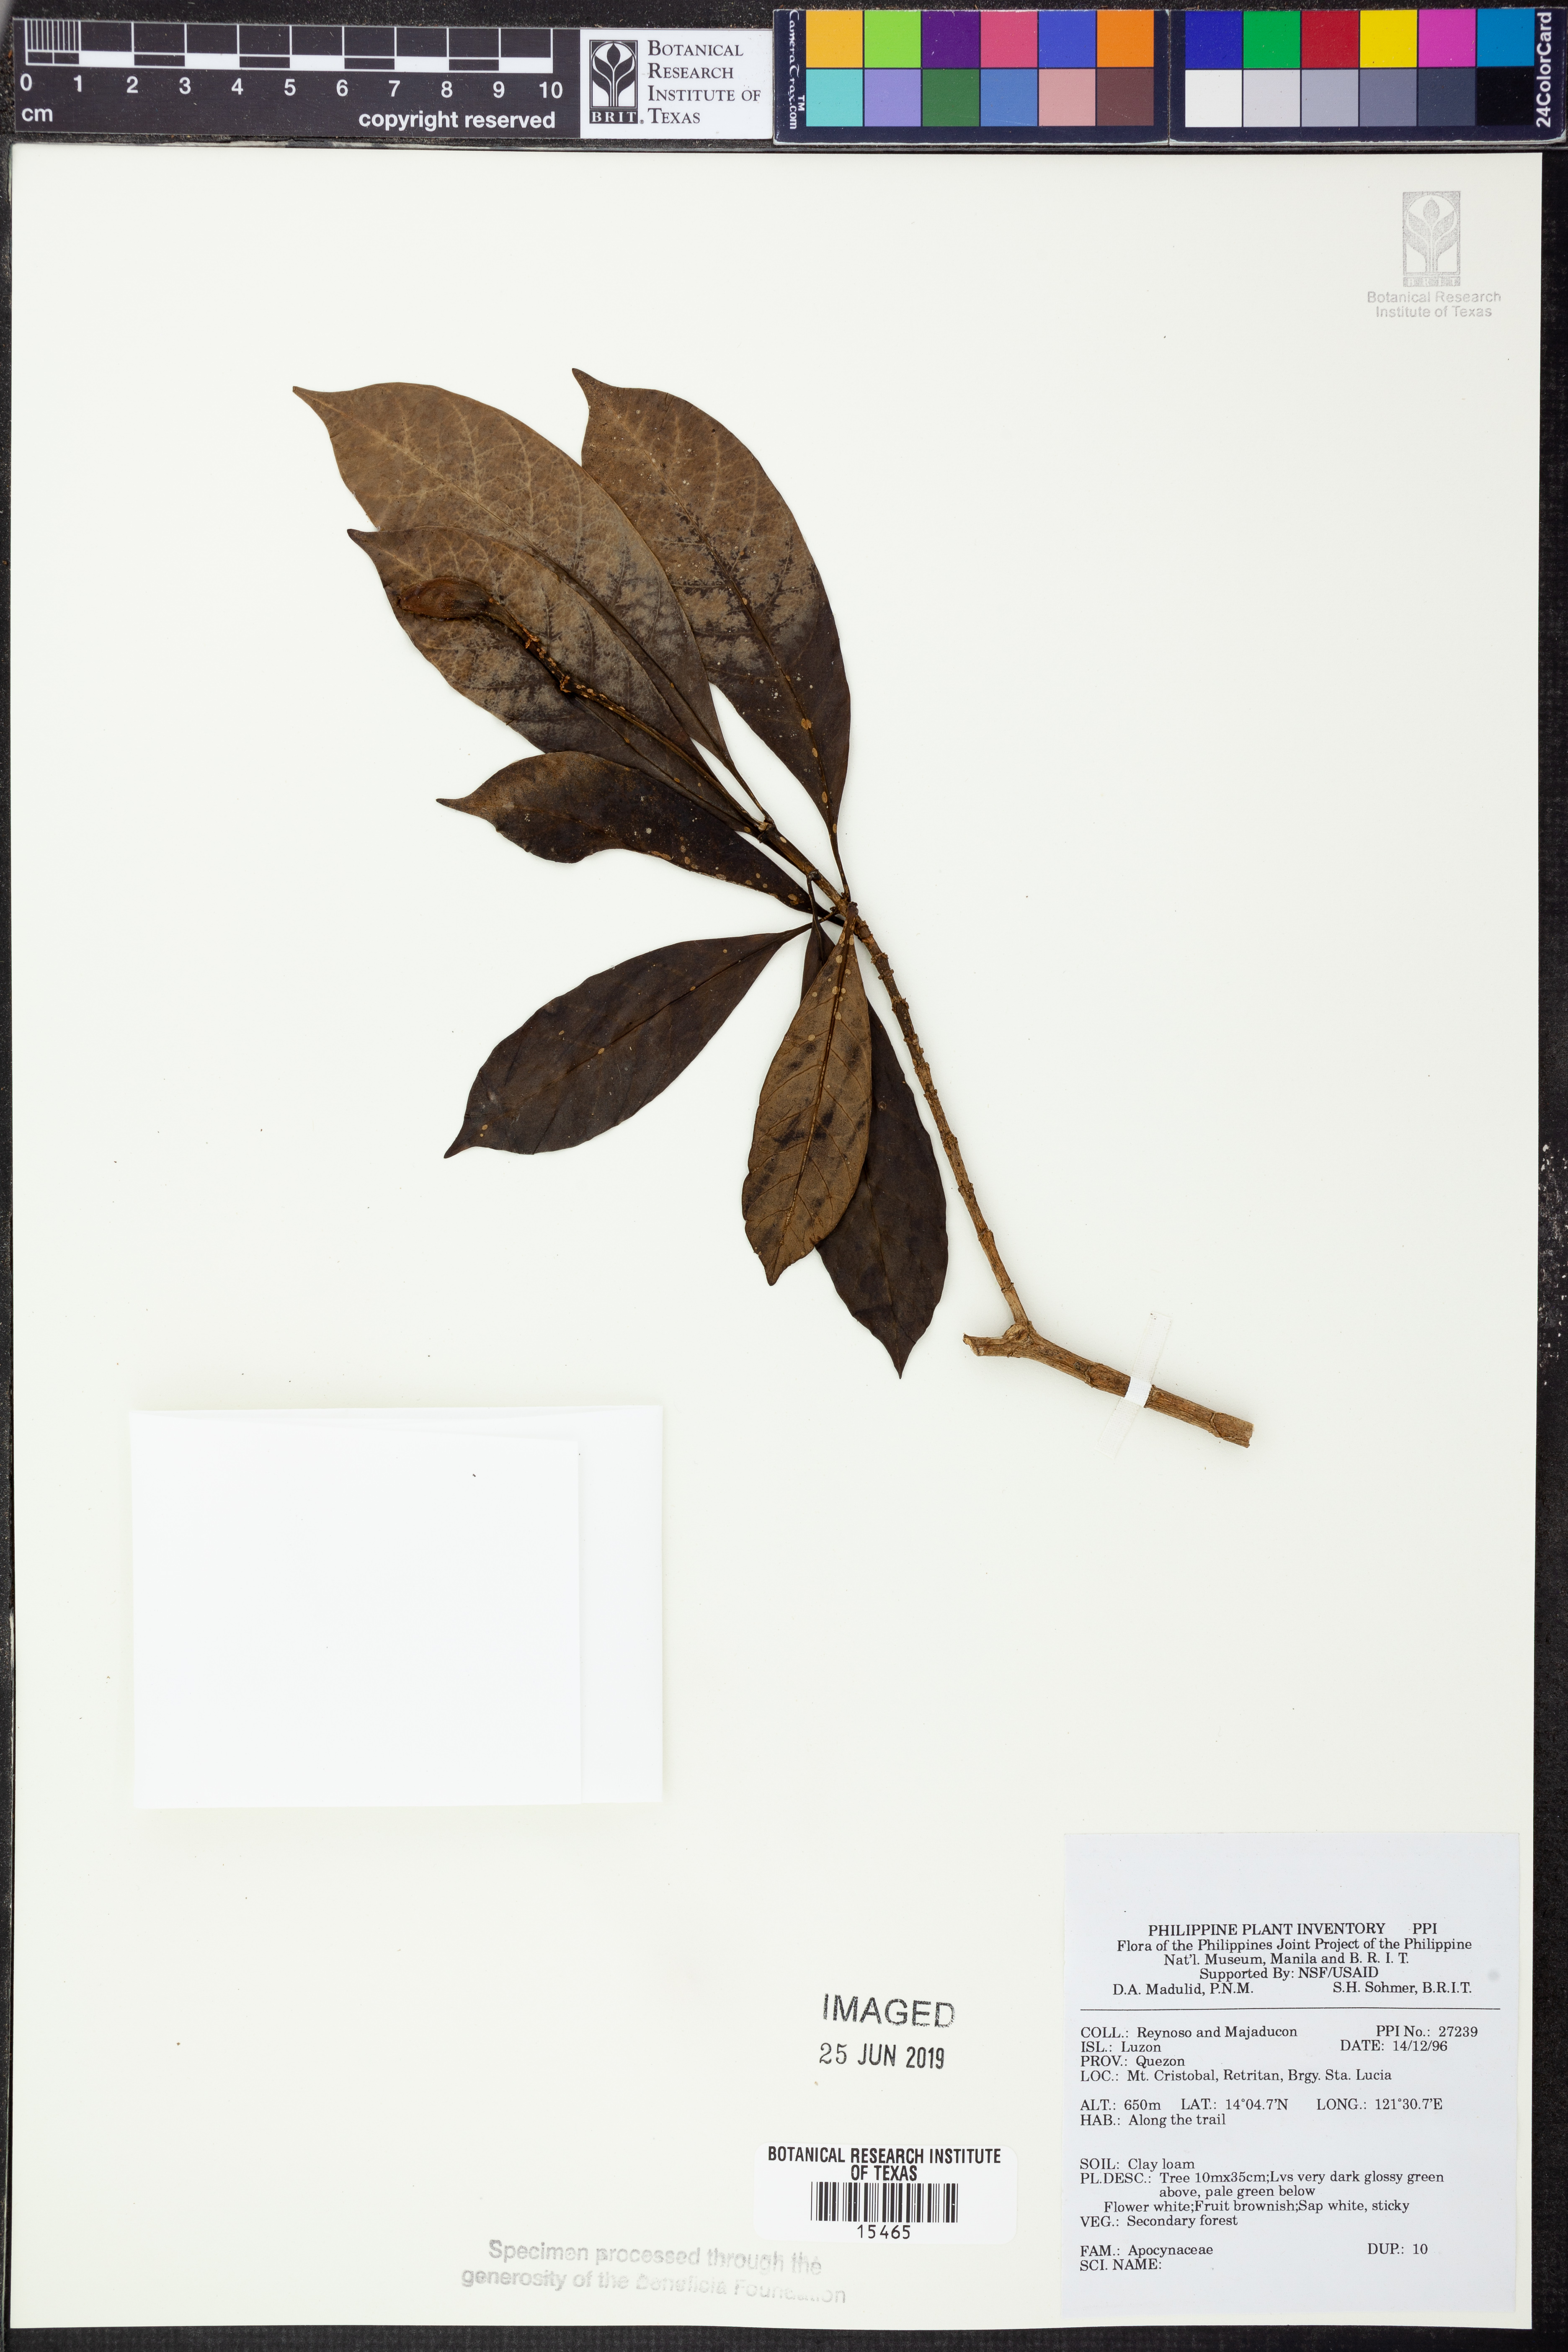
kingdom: Plantae
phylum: Tracheophyta
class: Magnoliopsida
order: Gentianales
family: Apocynaceae
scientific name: Apocynaceae
